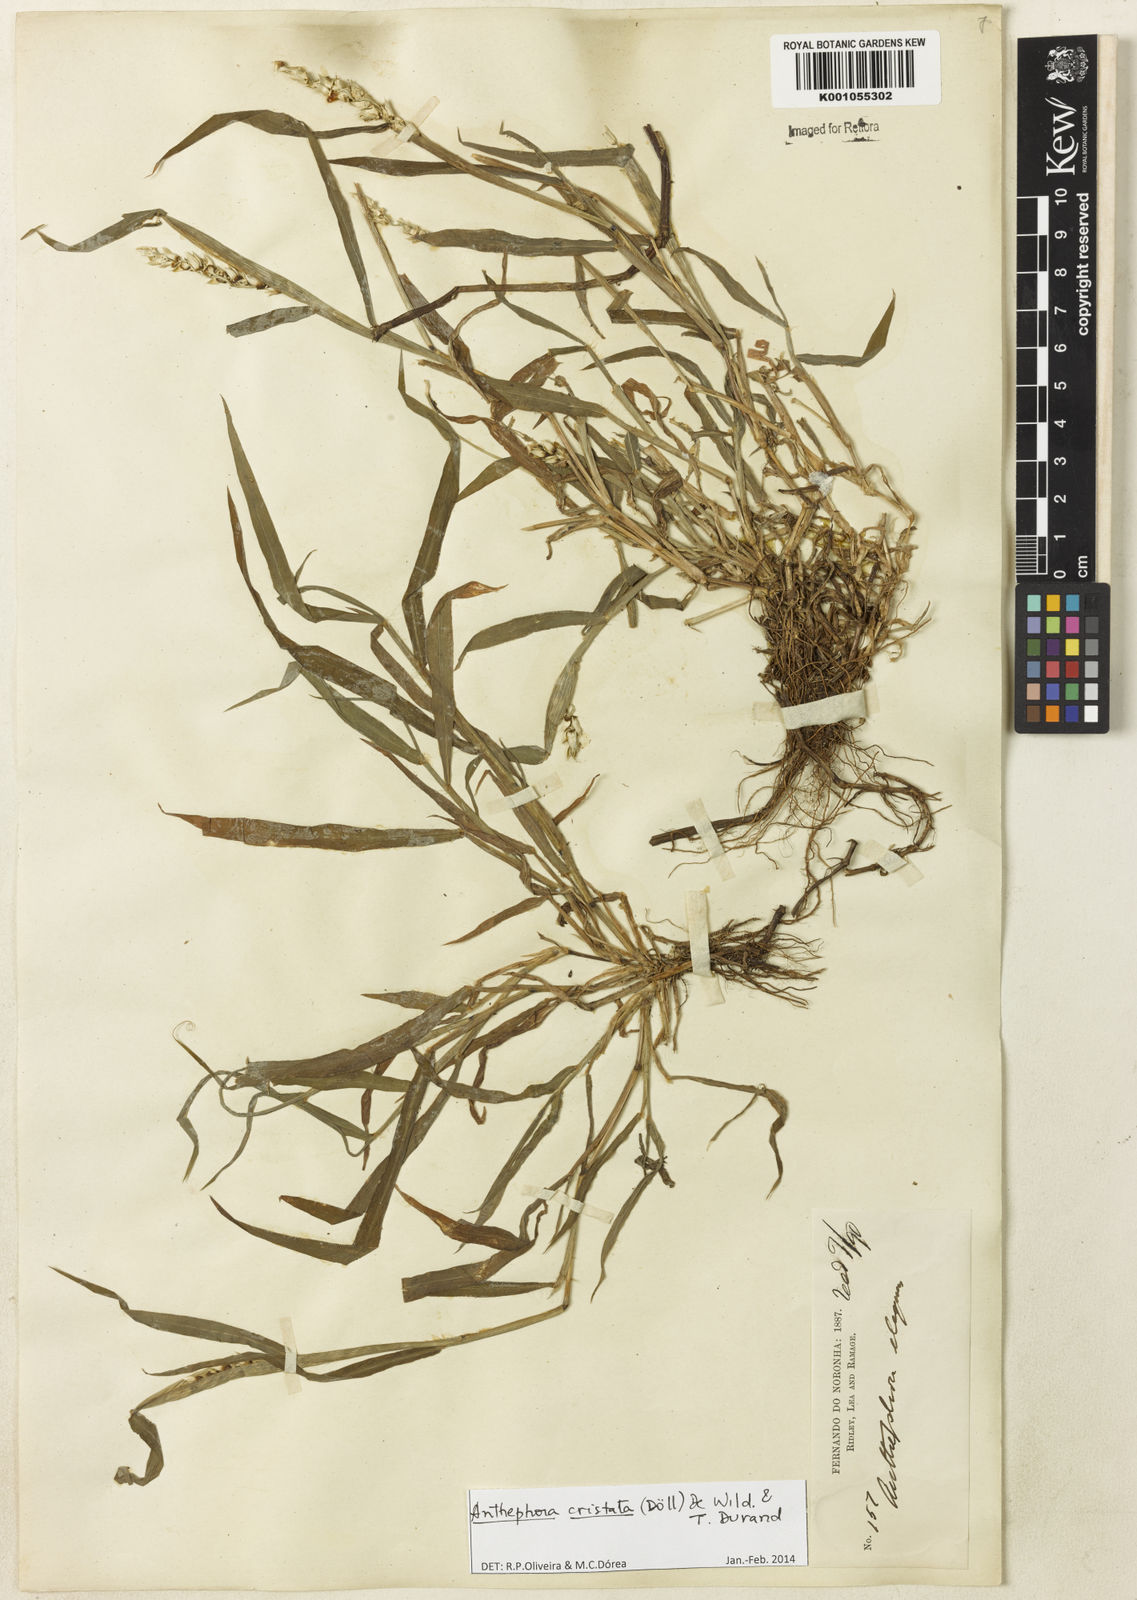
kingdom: Plantae
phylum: Tracheophyta
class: Liliopsida
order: Poales
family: Poaceae
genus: Anthephora
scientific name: Anthephora
